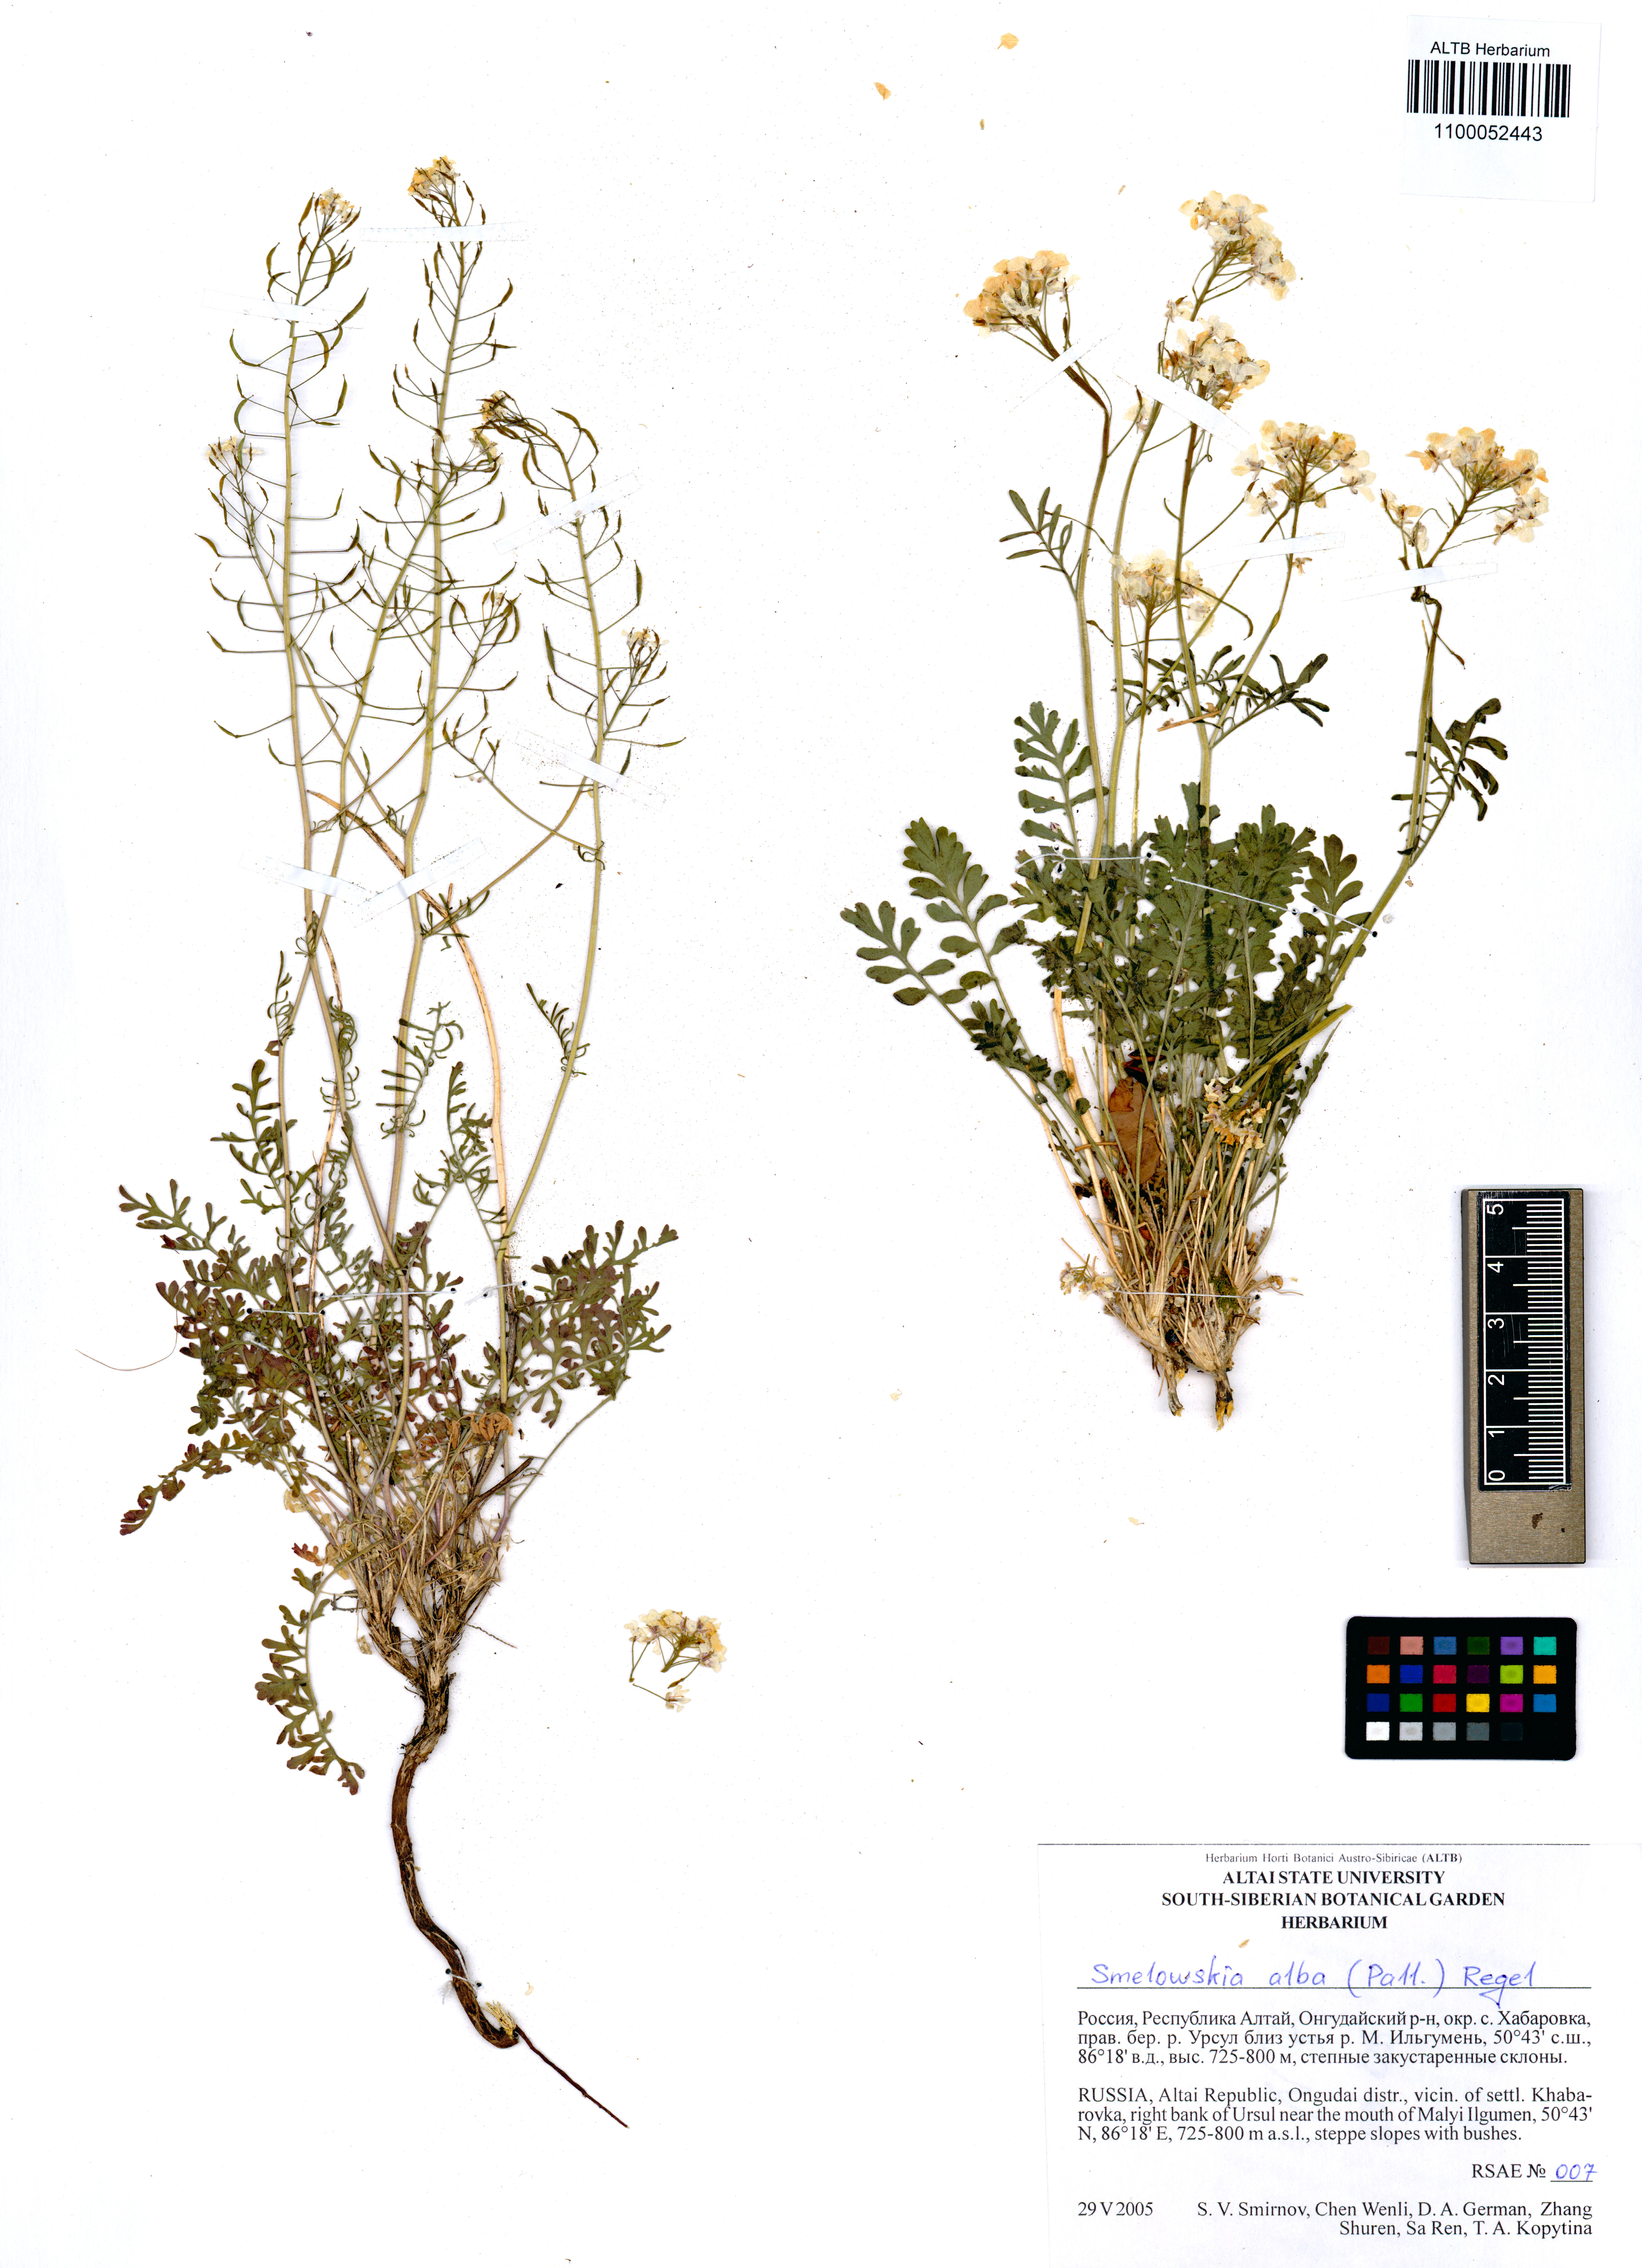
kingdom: Plantae
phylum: Tracheophyta
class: Magnoliopsida
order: Brassicales
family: Brassicaceae
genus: Smelowskia
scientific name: Smelowskia alba
